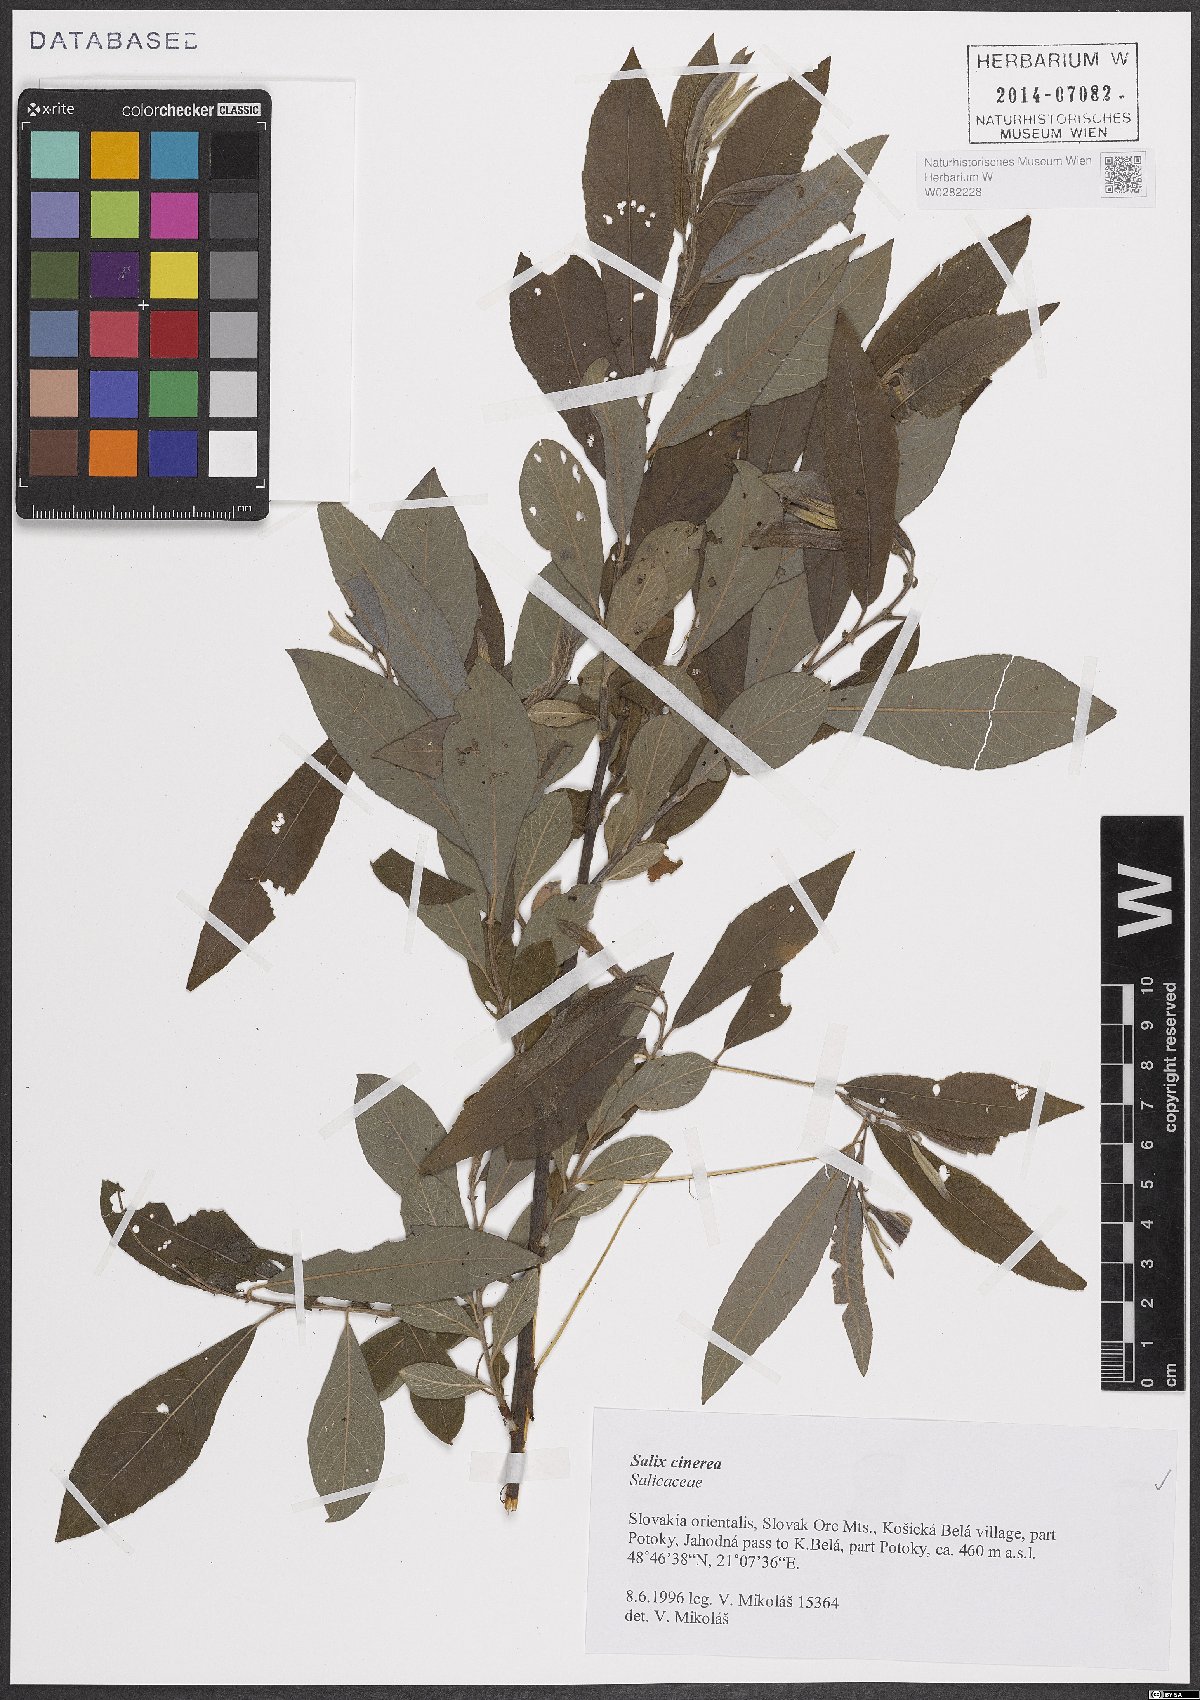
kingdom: Plantae
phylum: Tracheophyta
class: Magnoliopsida
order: Malpighiales
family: Salicaceae
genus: Salix
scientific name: Salix cinerea
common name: Common sallow
